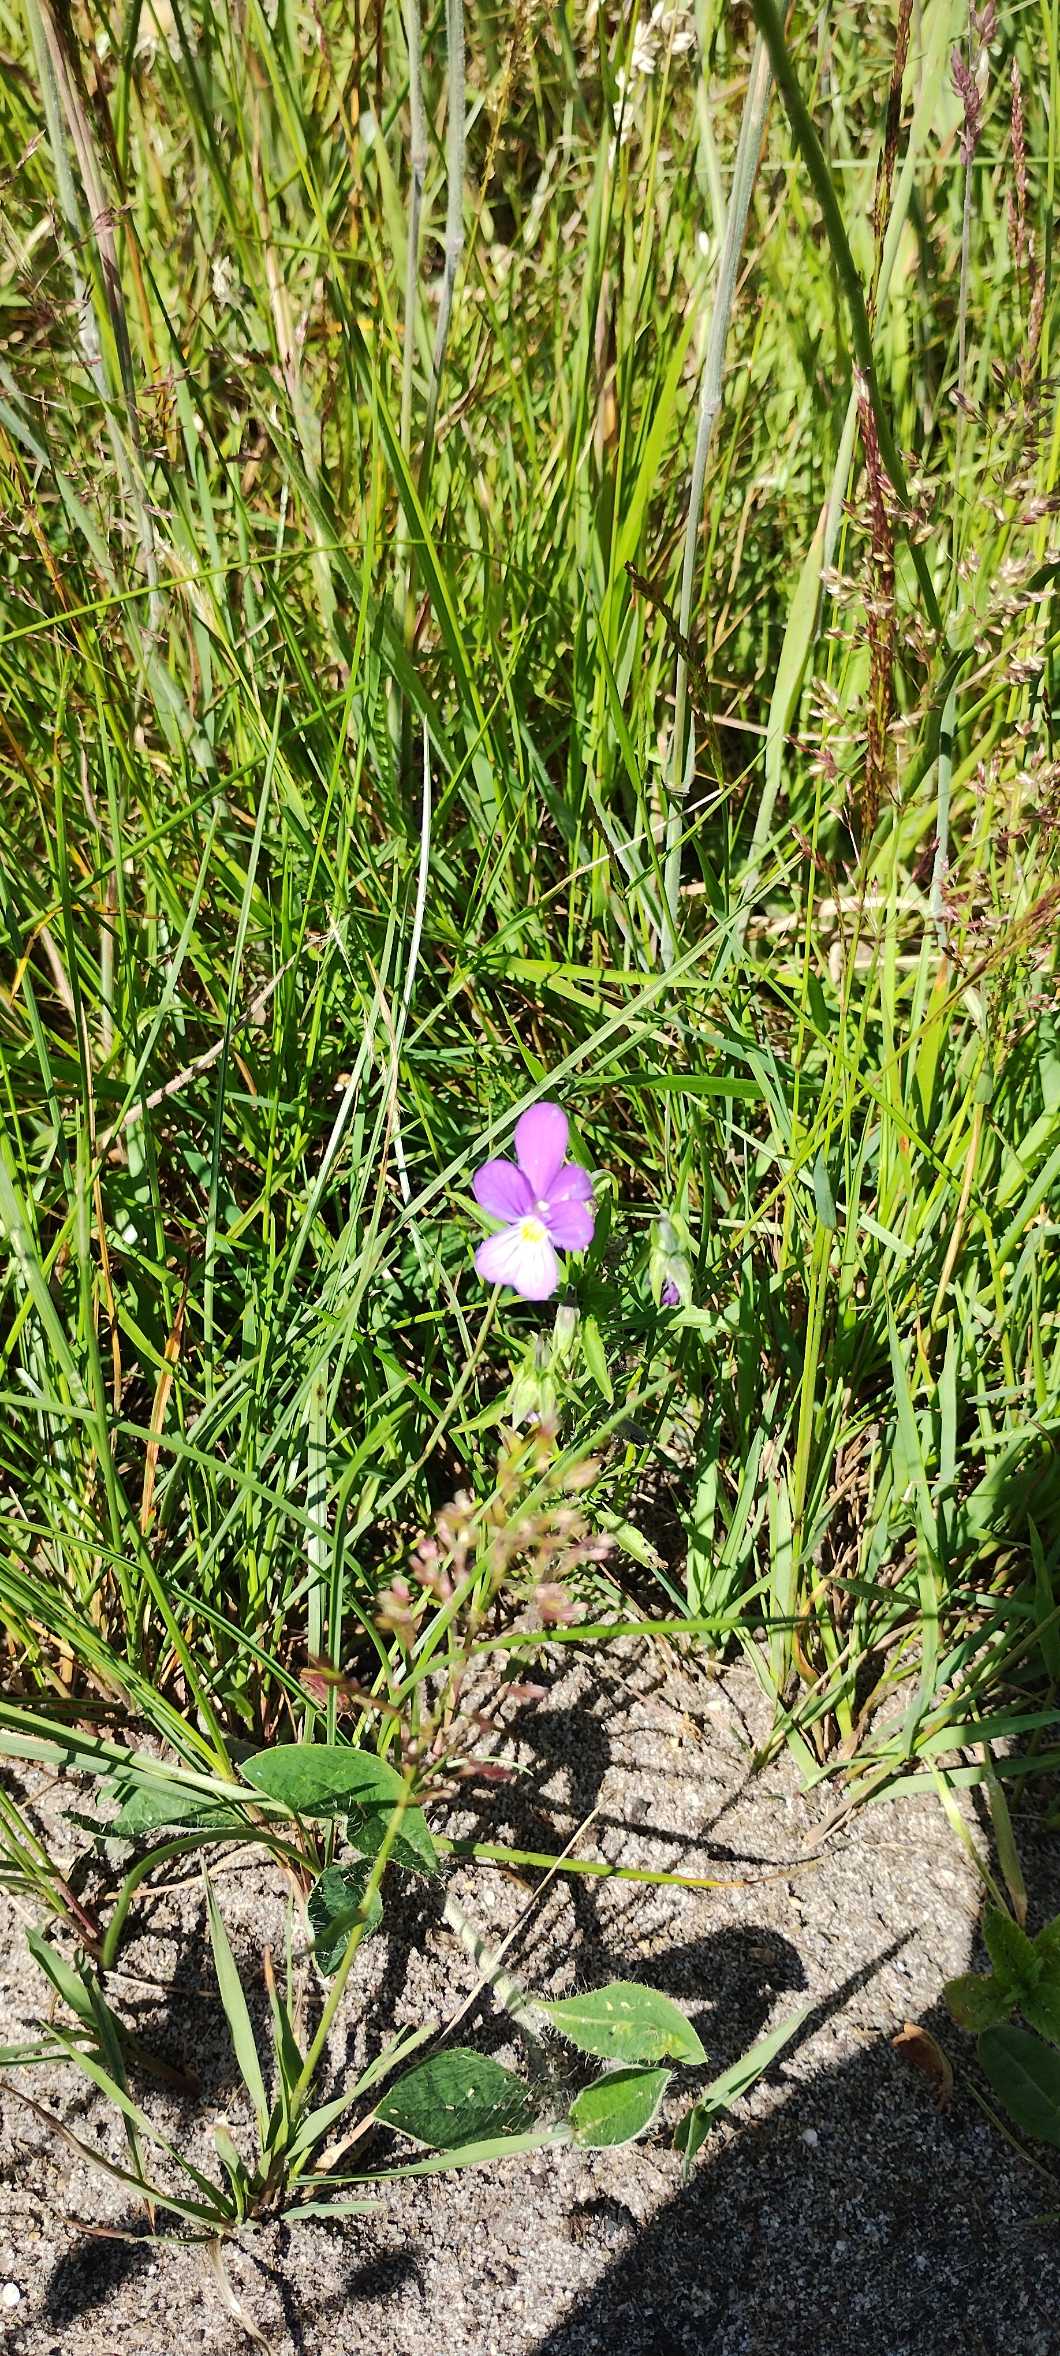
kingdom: Plantae
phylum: Tracheophyta
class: Magnoliopsida
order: Malpighiales
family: Violaceae
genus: Viola
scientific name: Viola tricolor
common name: Stedmoderblomst
